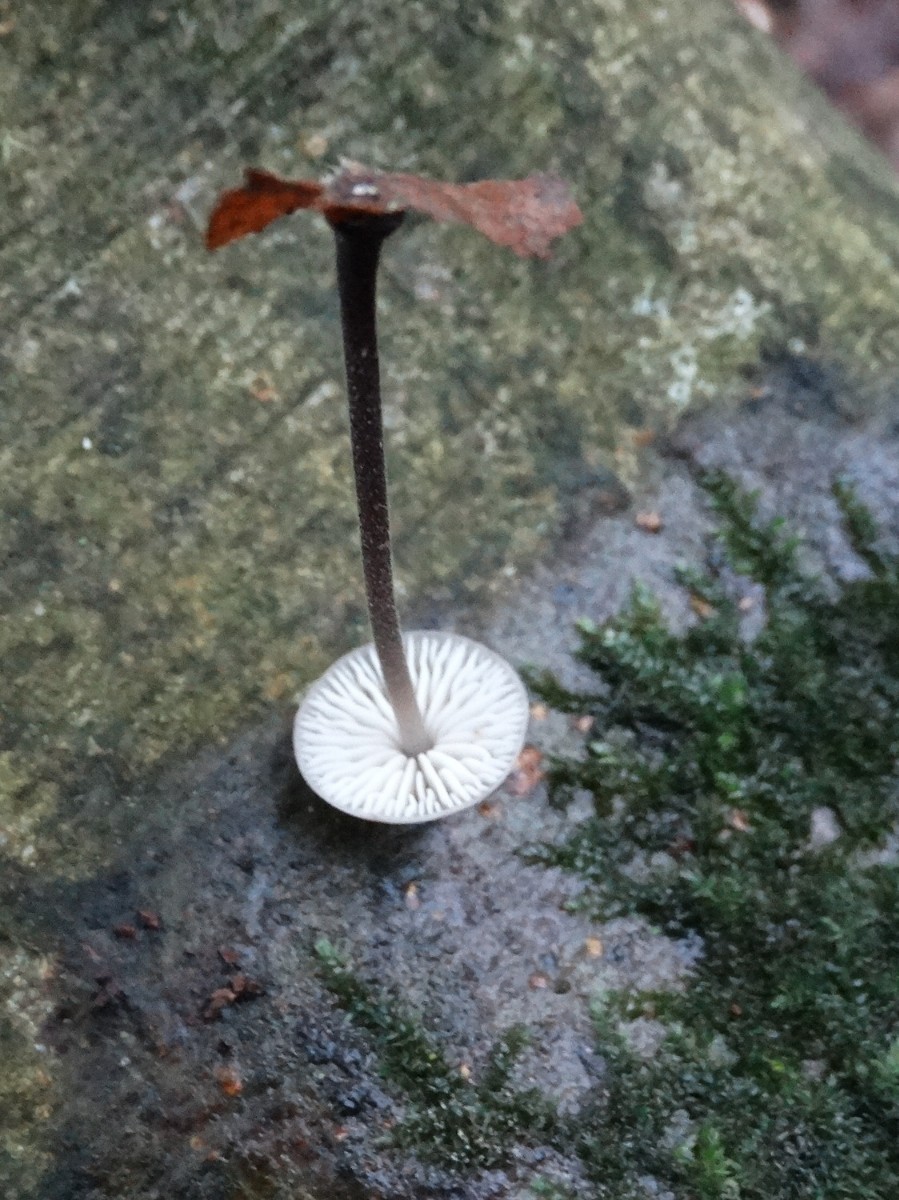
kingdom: Fungi
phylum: Basidiomycota
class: Agaricomycetes
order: Agaricales
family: Omphalotaceae
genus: Mycetinis
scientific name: Mycetinis alliaceus
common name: stor løghat
